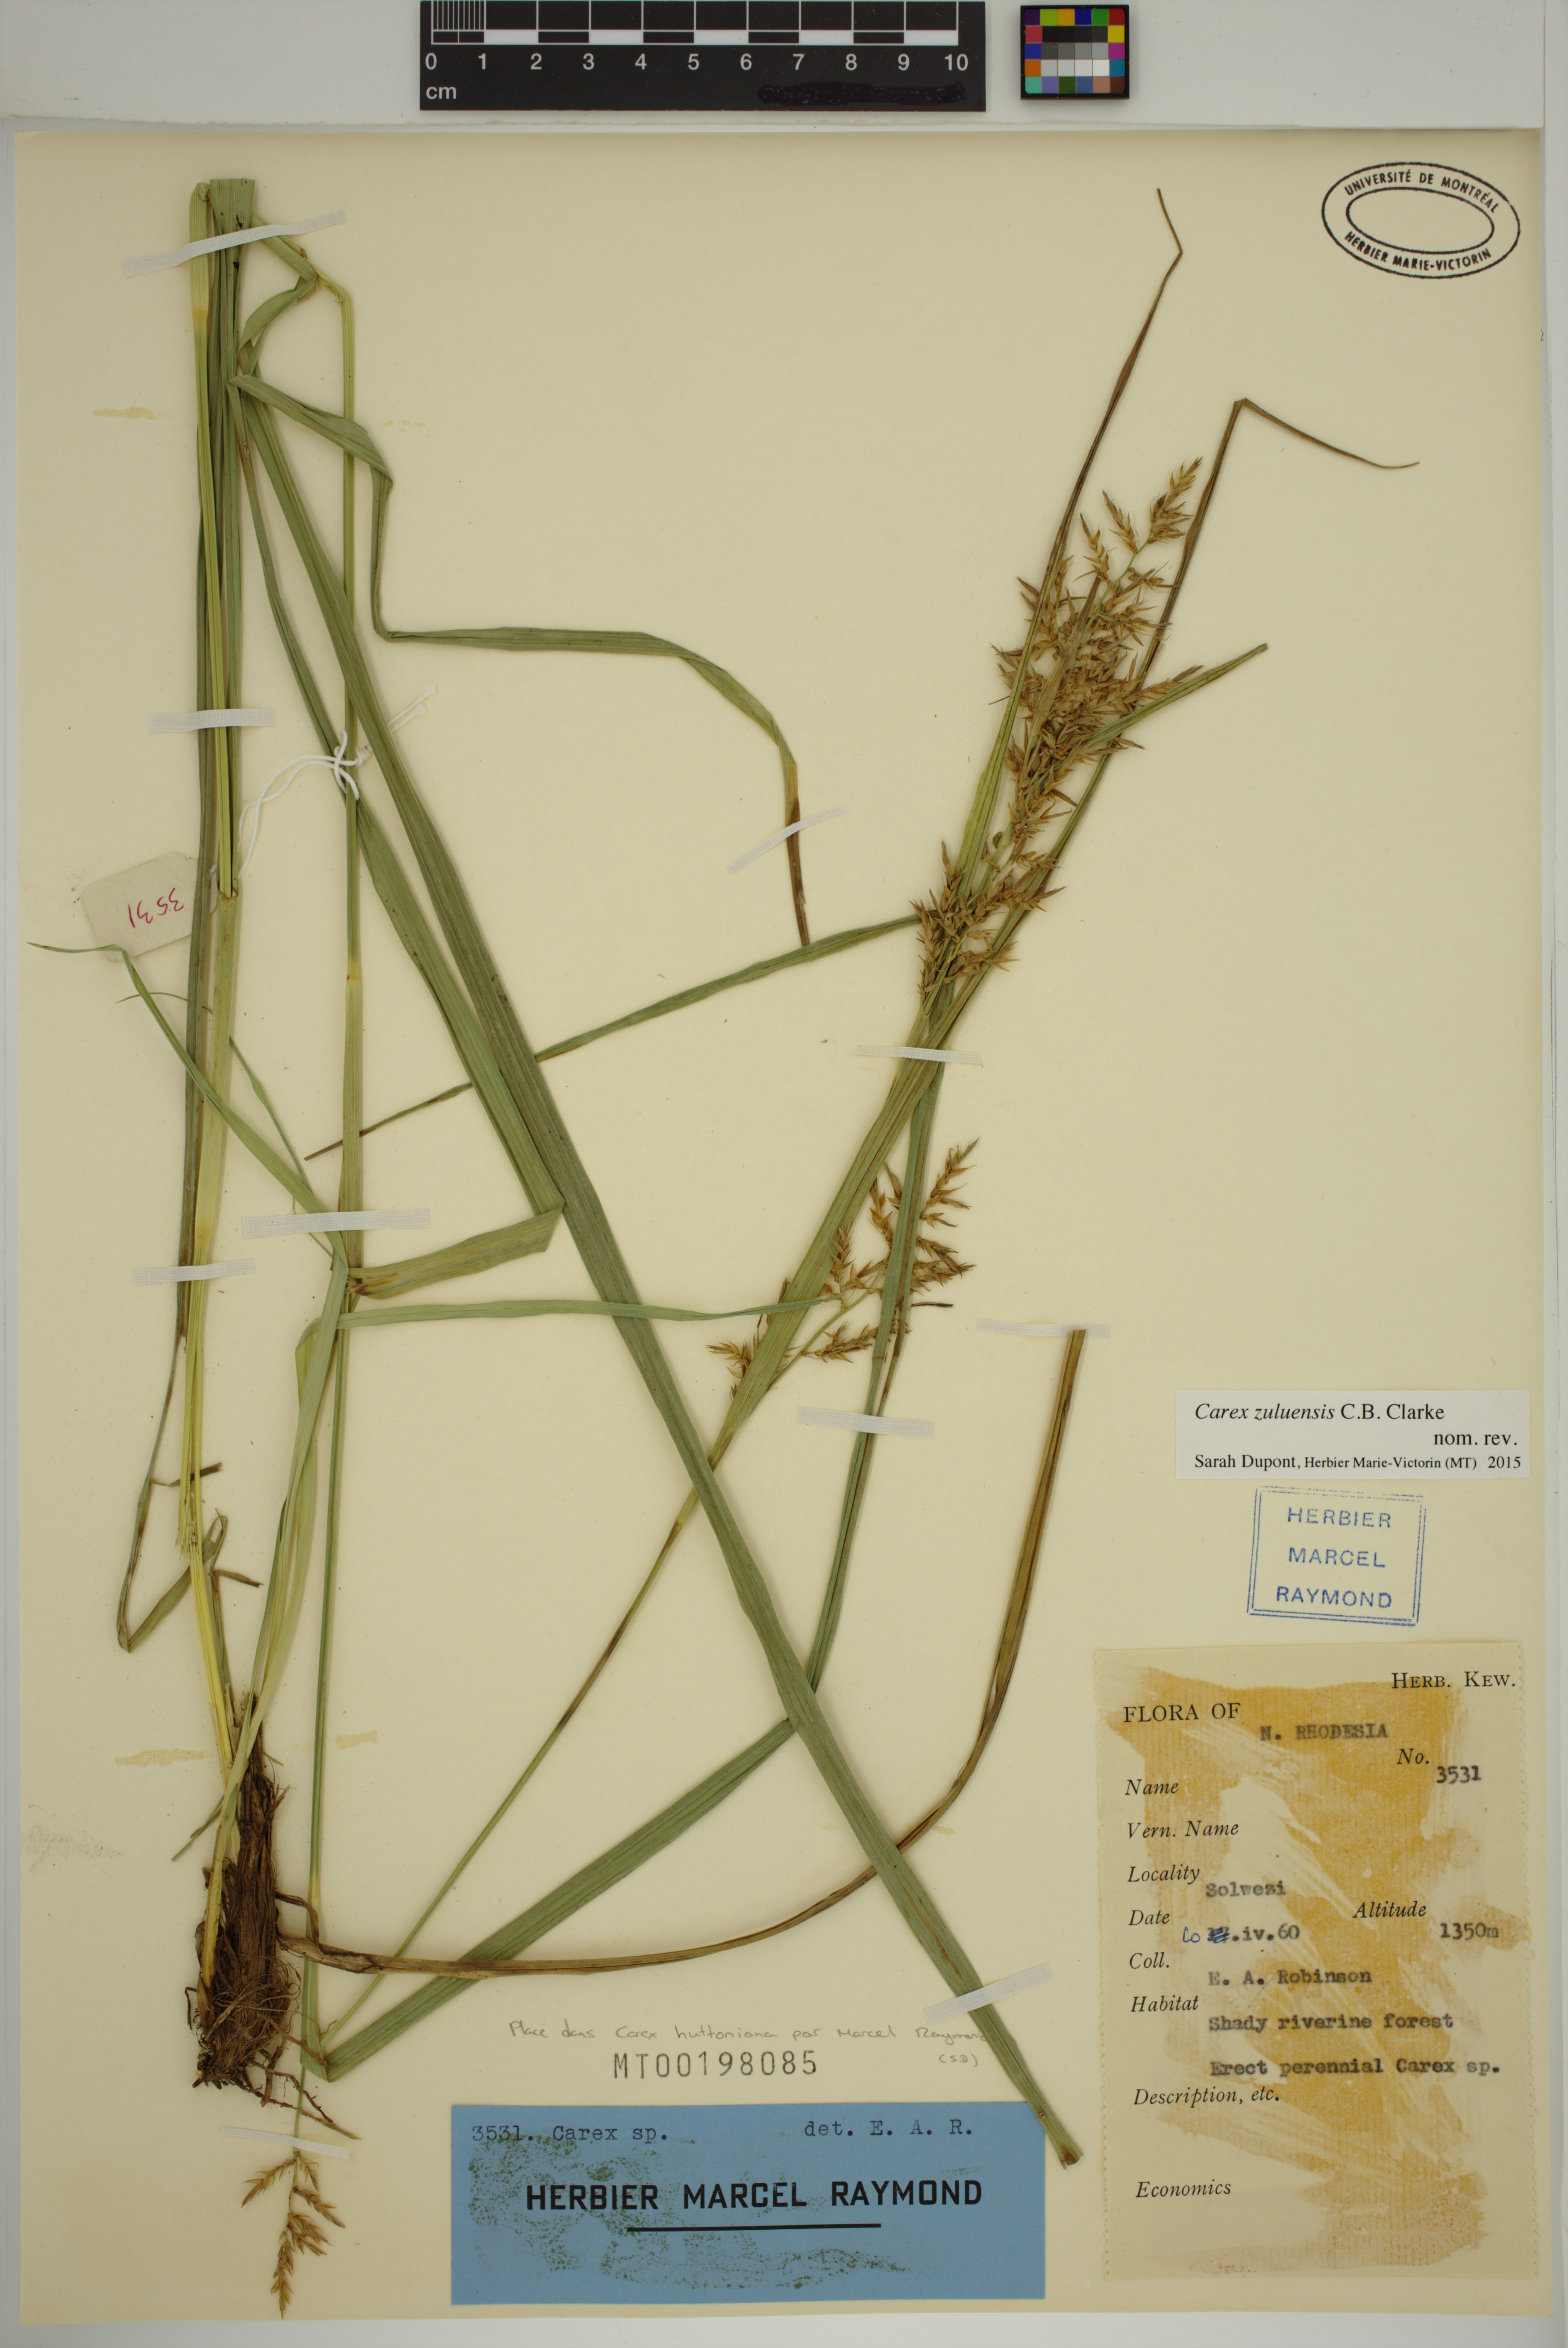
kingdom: Plantae
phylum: Tracheophyta
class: Liliopsida
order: Poales
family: Cyperaceae
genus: Carex
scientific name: Carex steudneri
